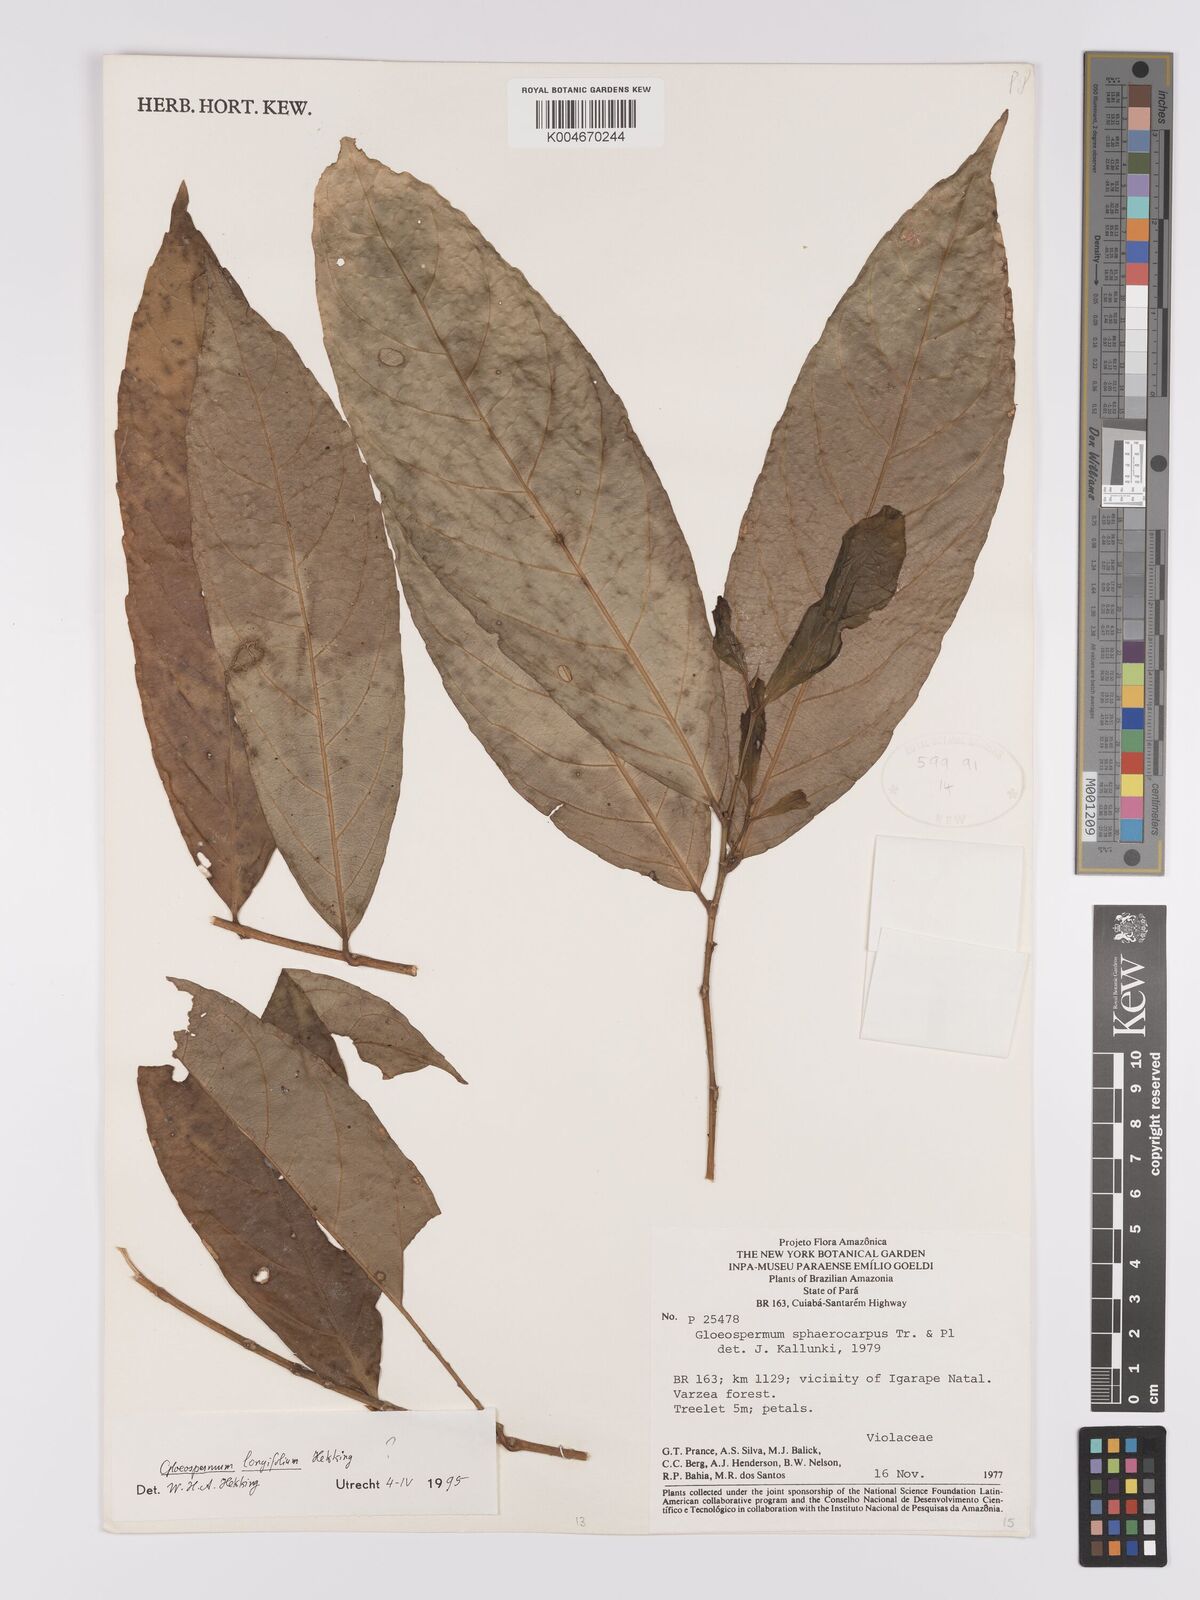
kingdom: Plantae
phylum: Tracheophyta
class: Magnoliopsida
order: Malpighiales
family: Violaceae
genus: Gloeospermum
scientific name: Gloeospermum longifolium
